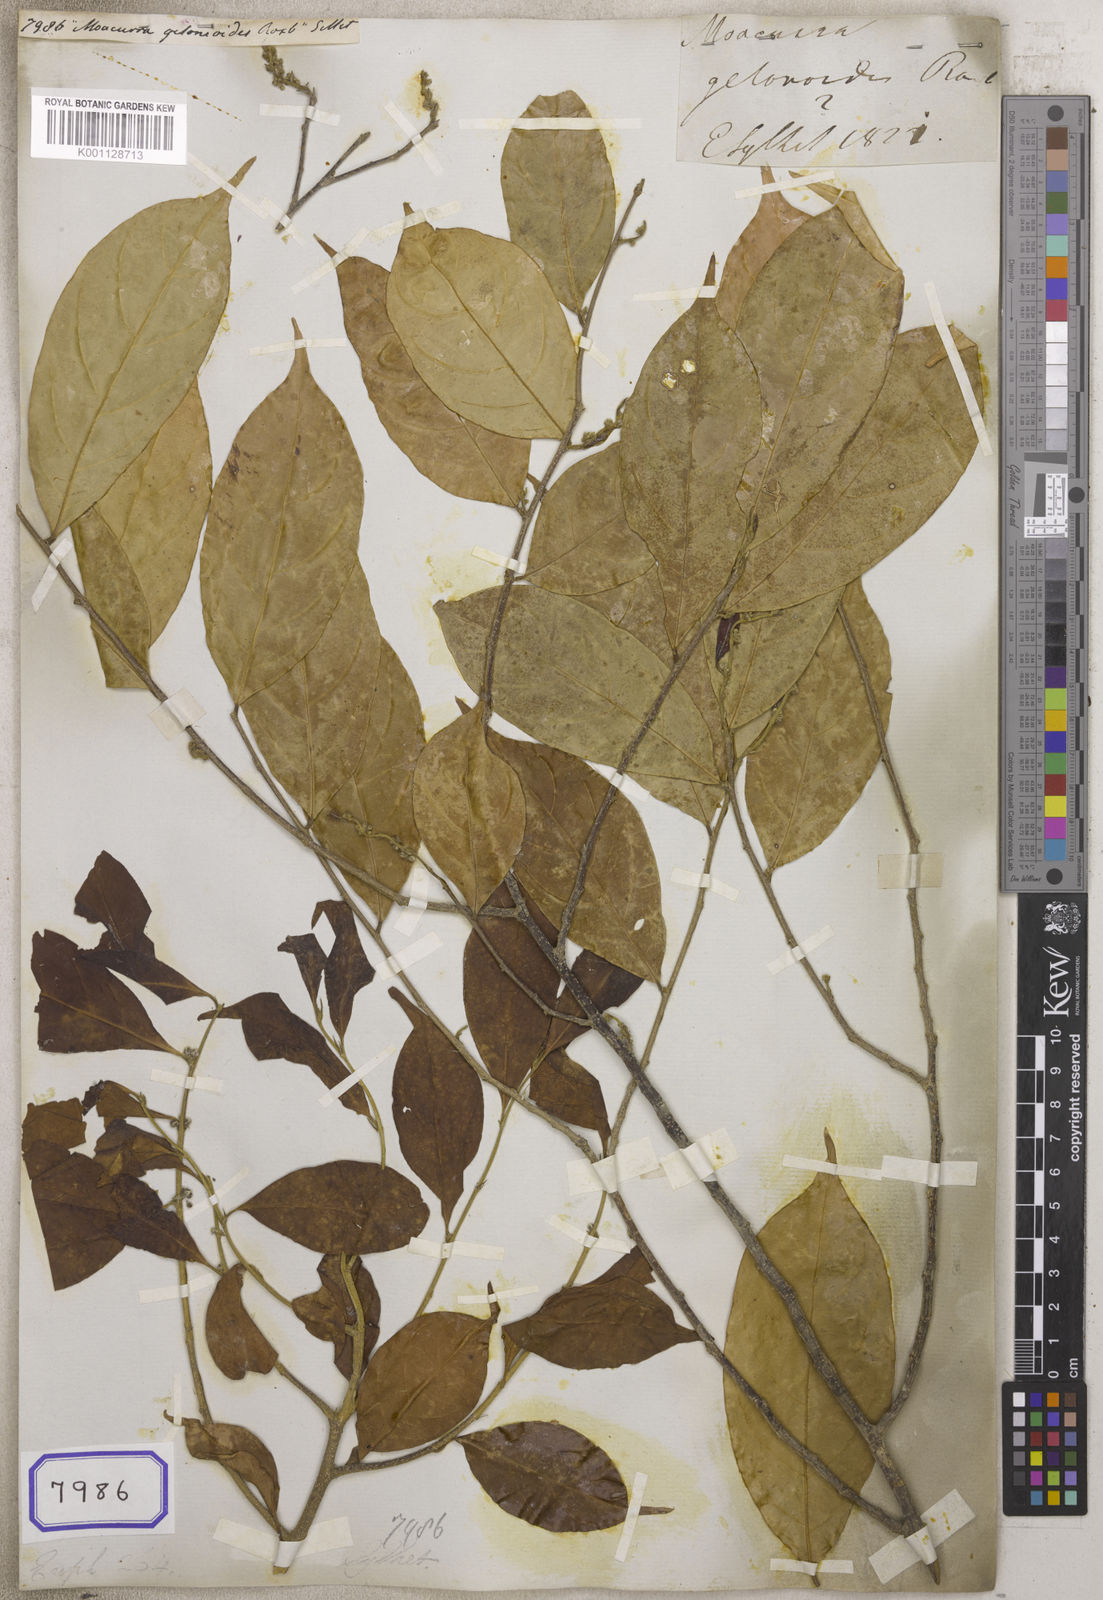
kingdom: Plantae
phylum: Tracheophyta
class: Magnoliopsida
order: Malpighiales
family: Euphorbiaceae
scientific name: Euphorbiaceae
